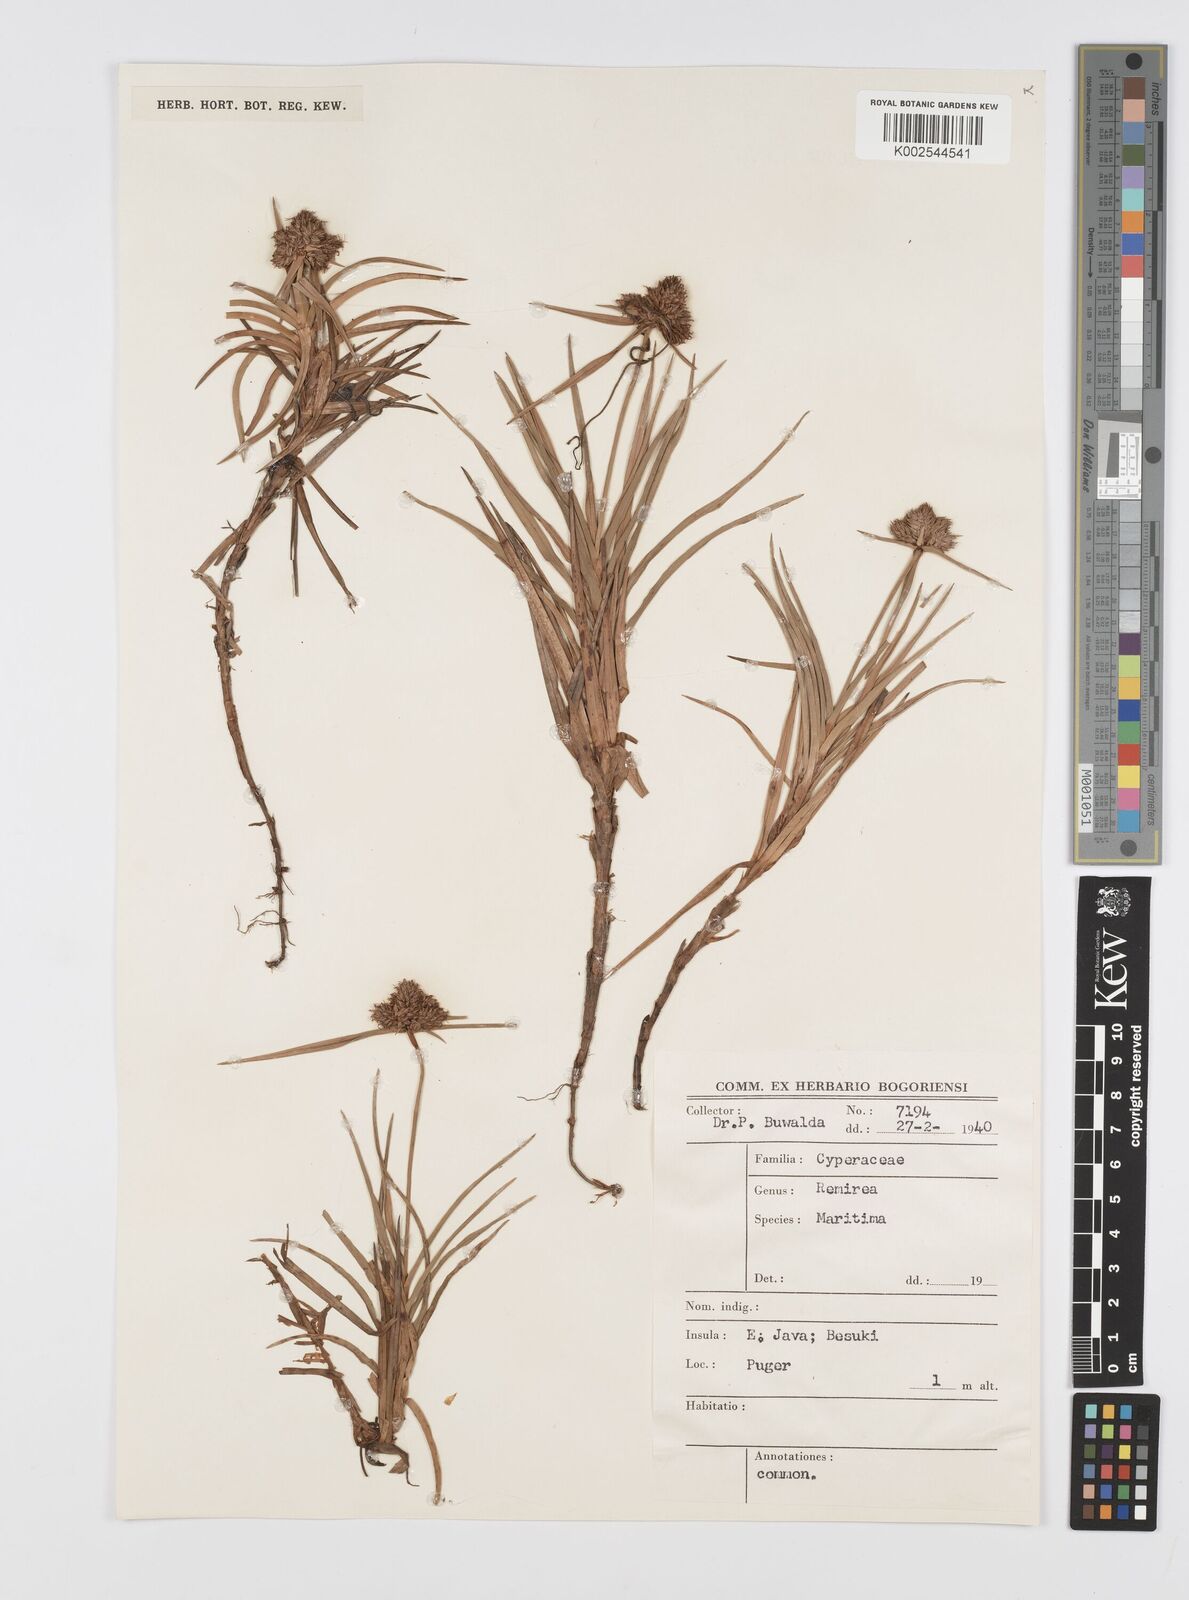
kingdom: Plantae
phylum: Tracheophyta
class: Liliopsida
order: Poales
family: Cyperaceae
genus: Cyperus
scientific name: Cyperus
